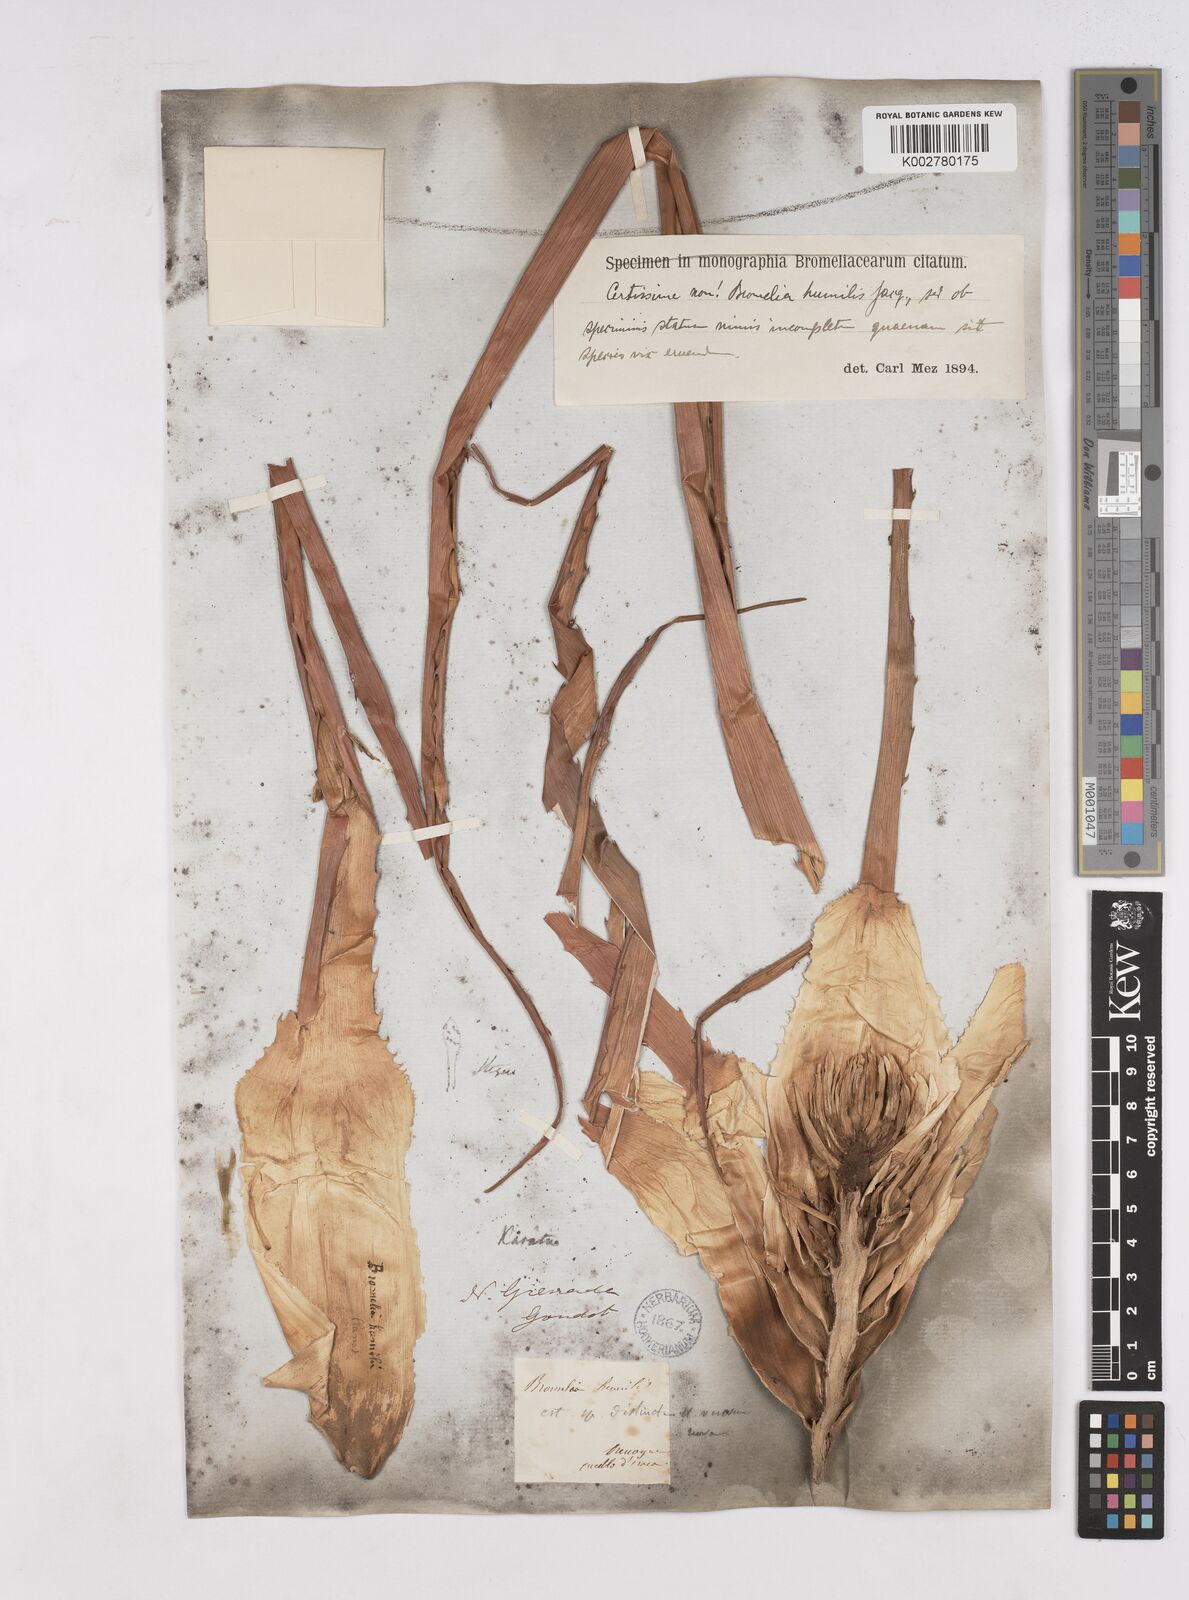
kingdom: Plantae
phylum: Tracheophyta
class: Liliopsida
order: Poales
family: Bromeliaceae
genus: Bromelia
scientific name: Bromelia
